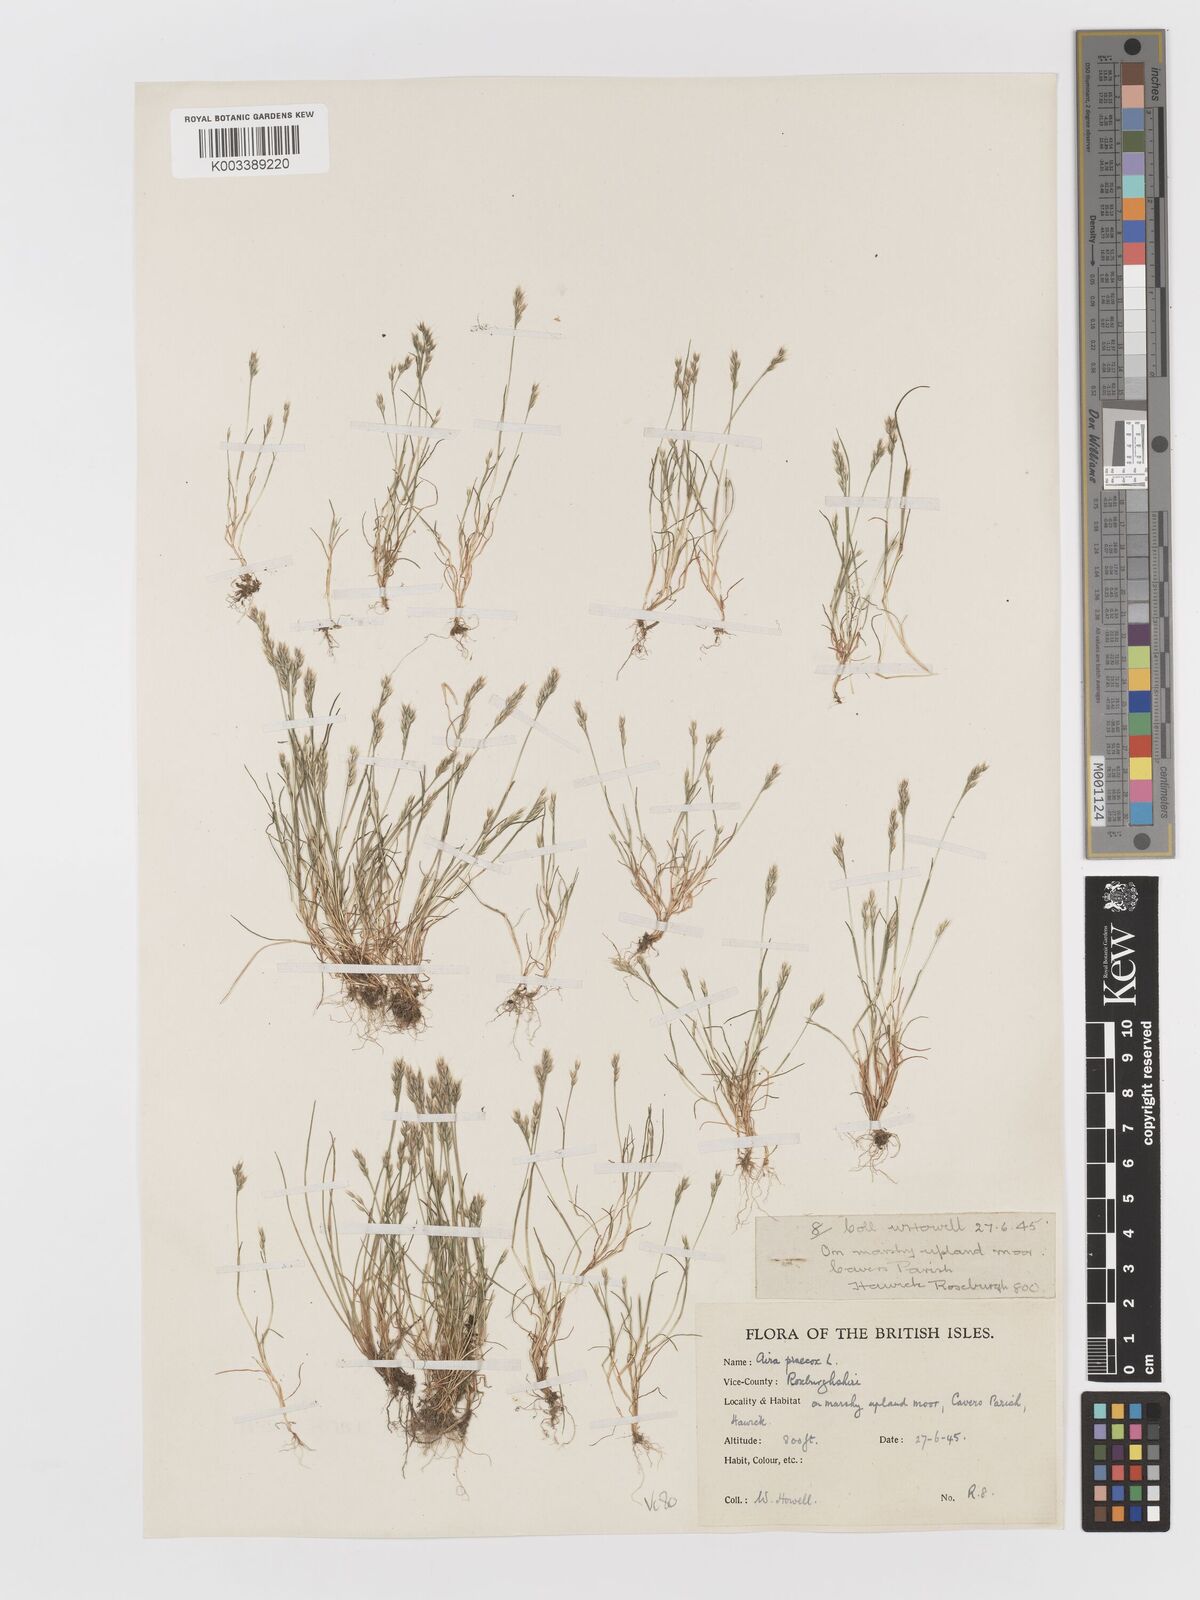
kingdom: Plantae
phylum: Tracheophyta
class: Liliopsida
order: Poales
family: Poaceae
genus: Aira
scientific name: Aira praecox
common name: Early hair-grass
